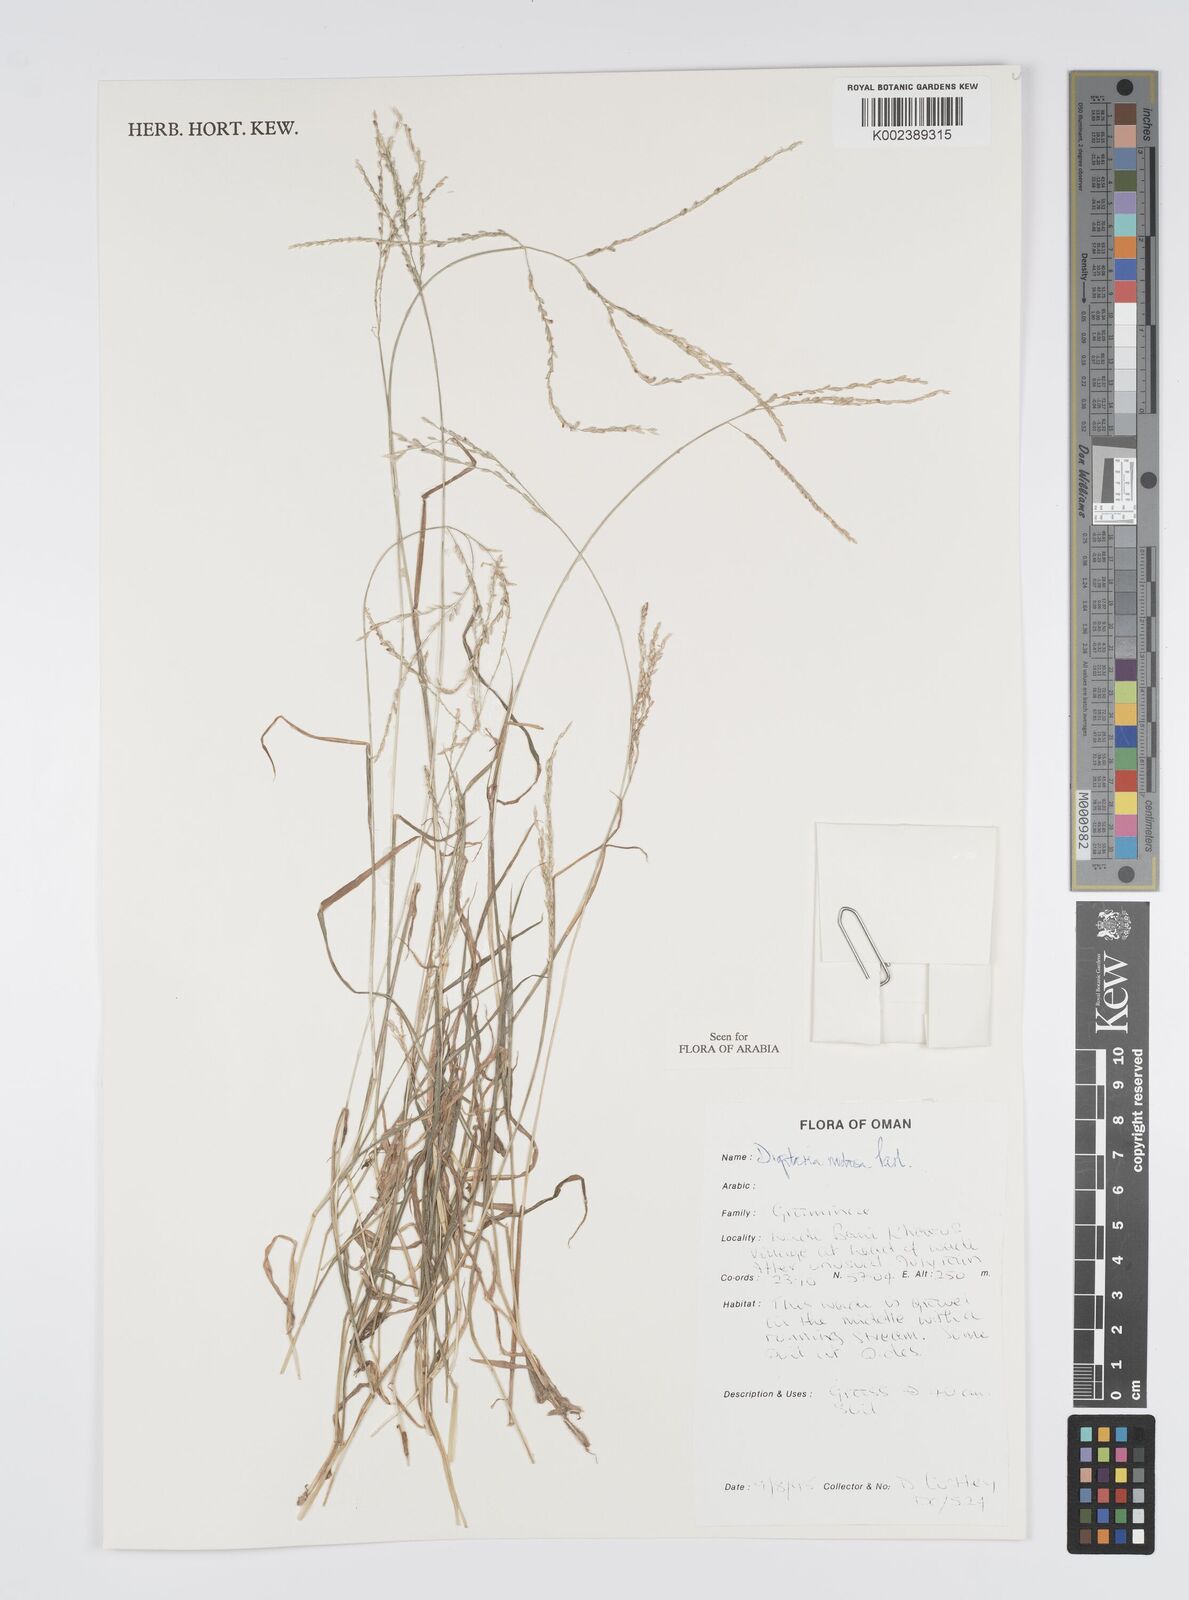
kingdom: Plantae
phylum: Tracheophyta
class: Liliopsida
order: Poales
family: Poaceae
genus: Digitaria
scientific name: Digitaria nodosa
